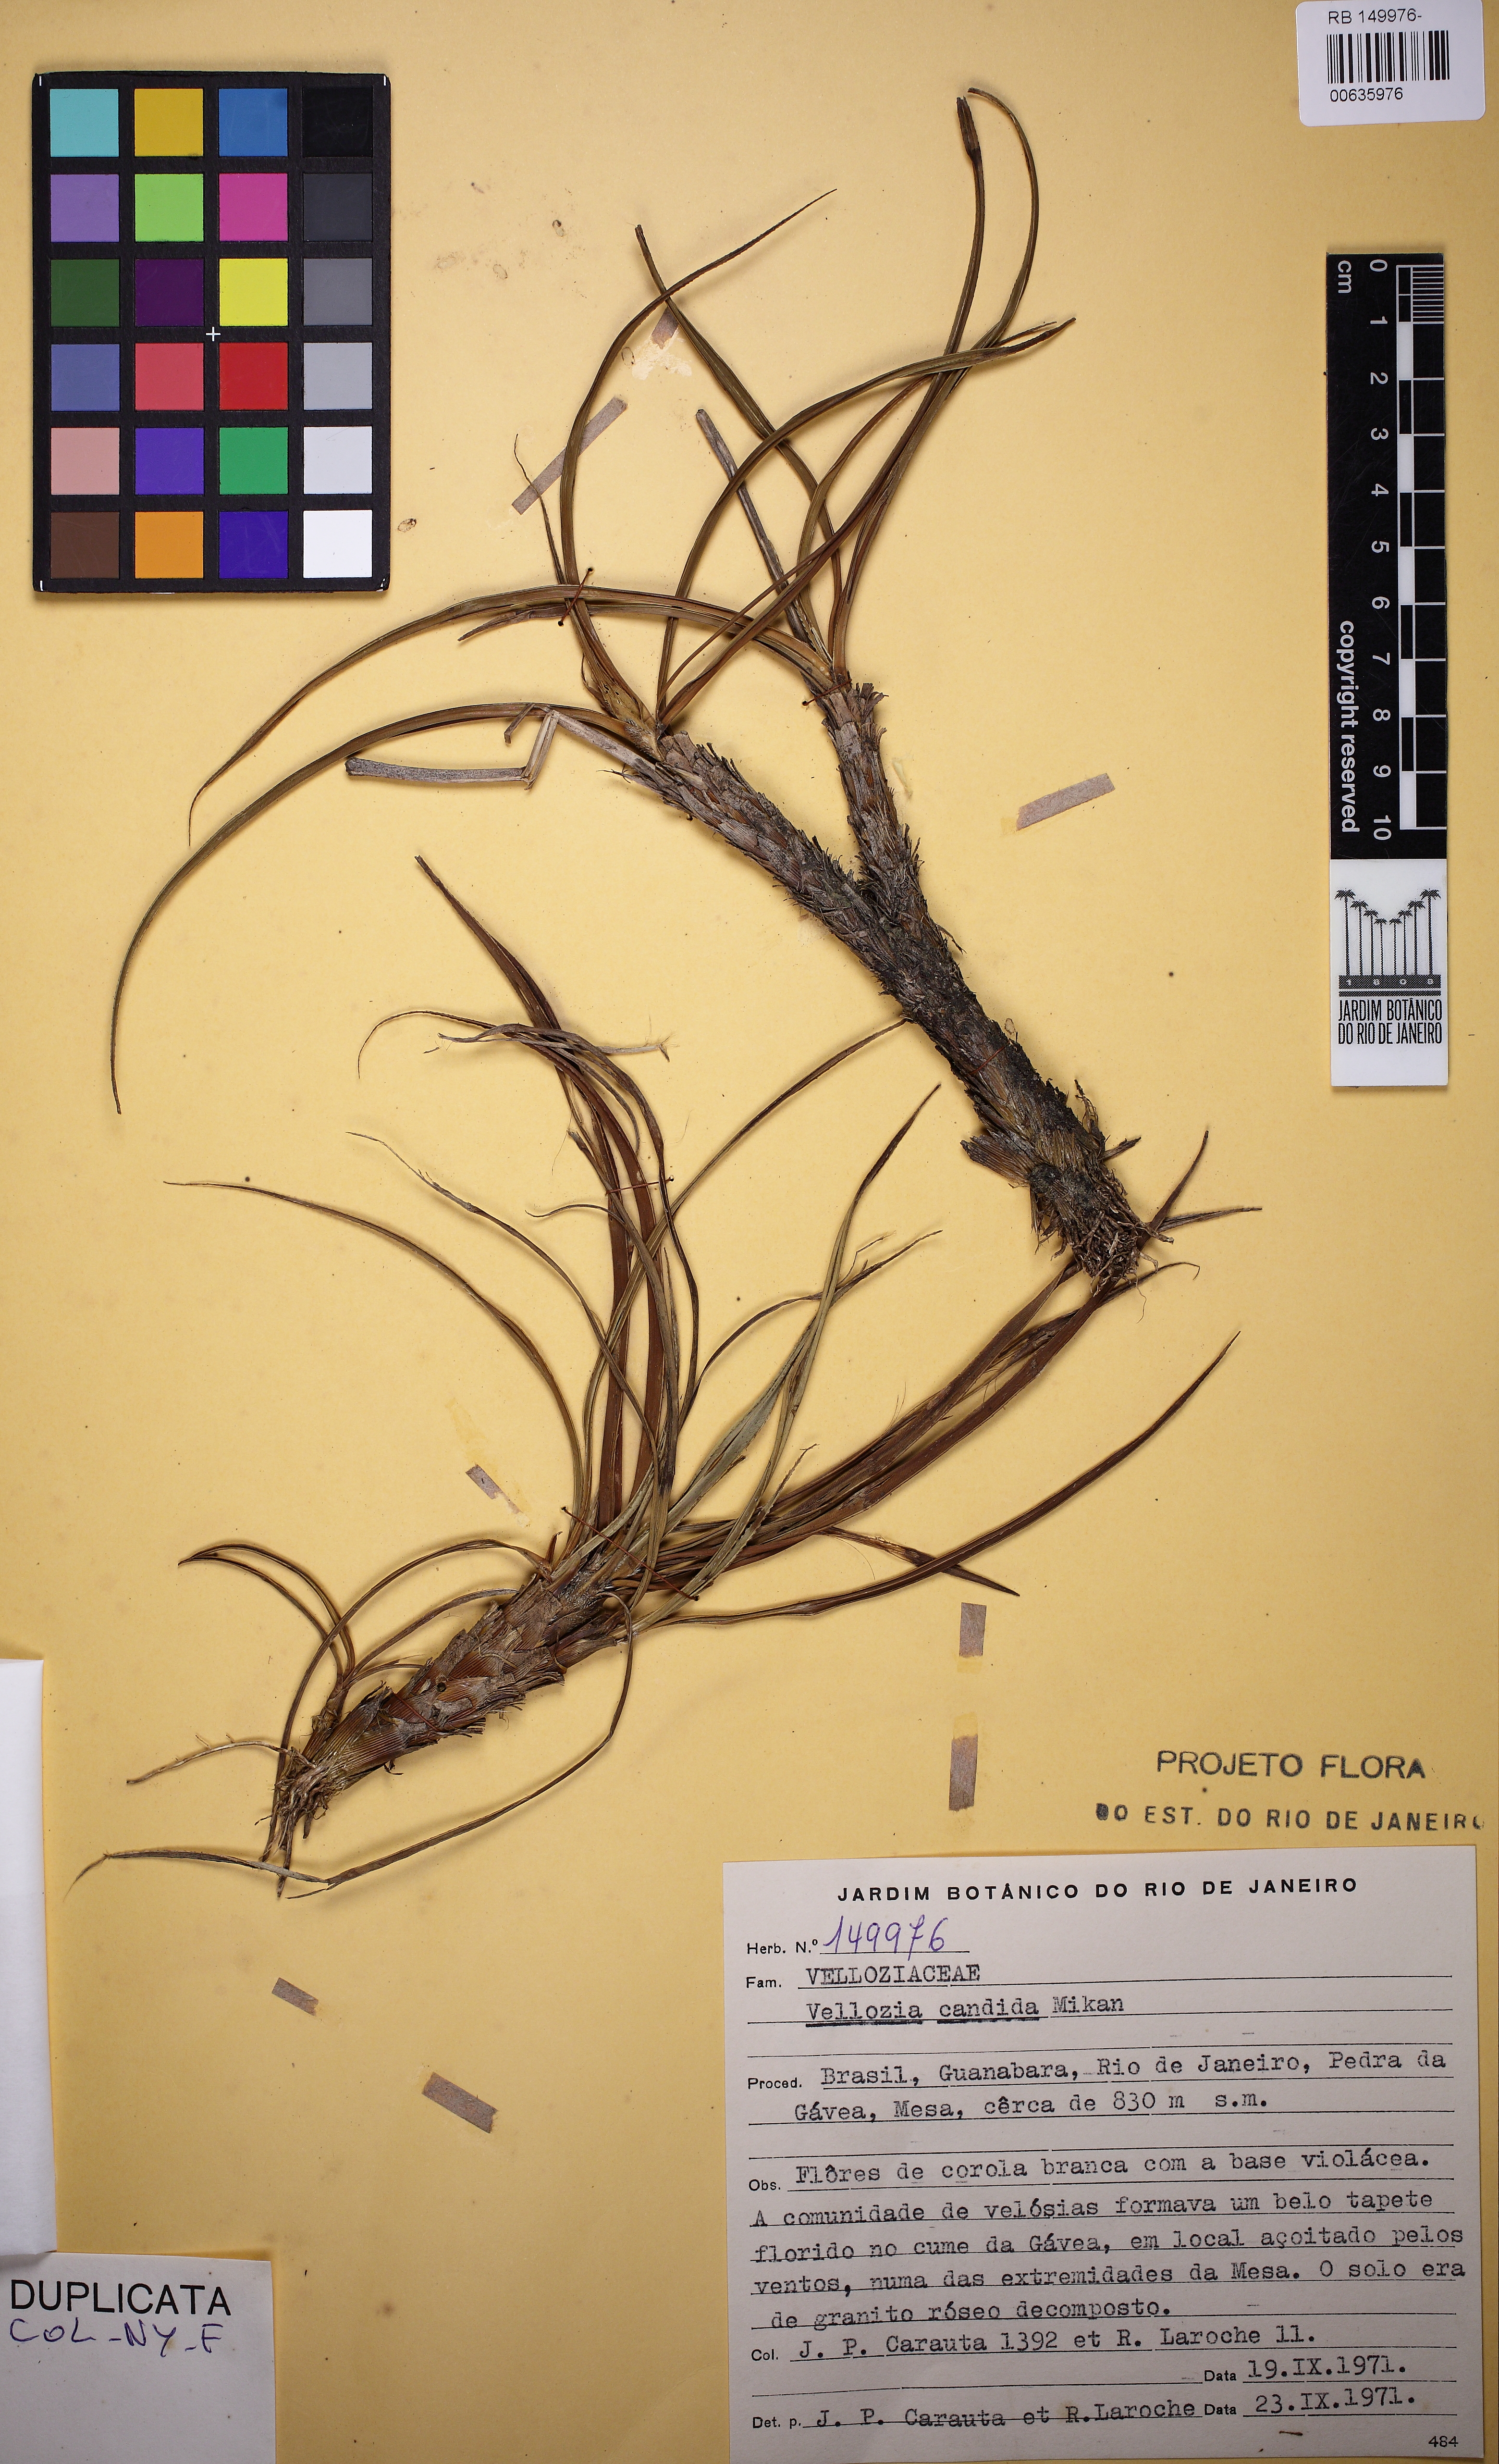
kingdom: Plantae
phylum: Tracheophyta
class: Liliopsida
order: Pandanales
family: Velloziaceae
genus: Vellozia
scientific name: Vellozia candida
